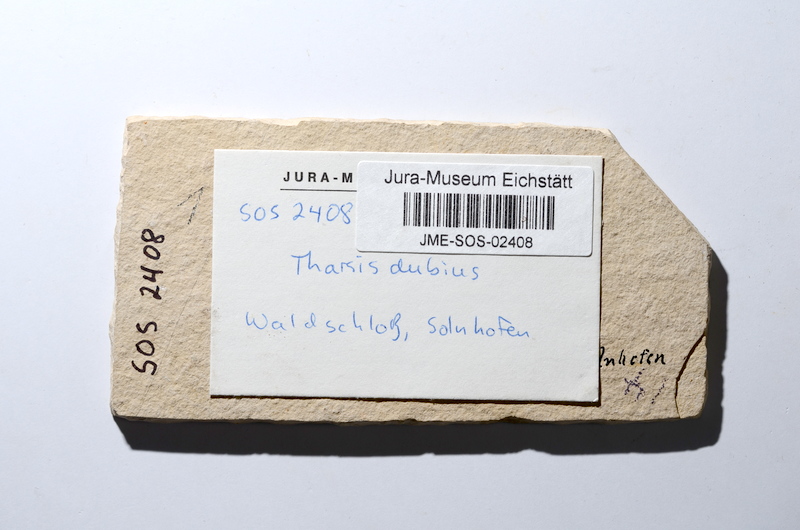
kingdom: Animalia
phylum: Chordata
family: Ascalaboidae
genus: Tharsis
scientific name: Tharsis dubius
